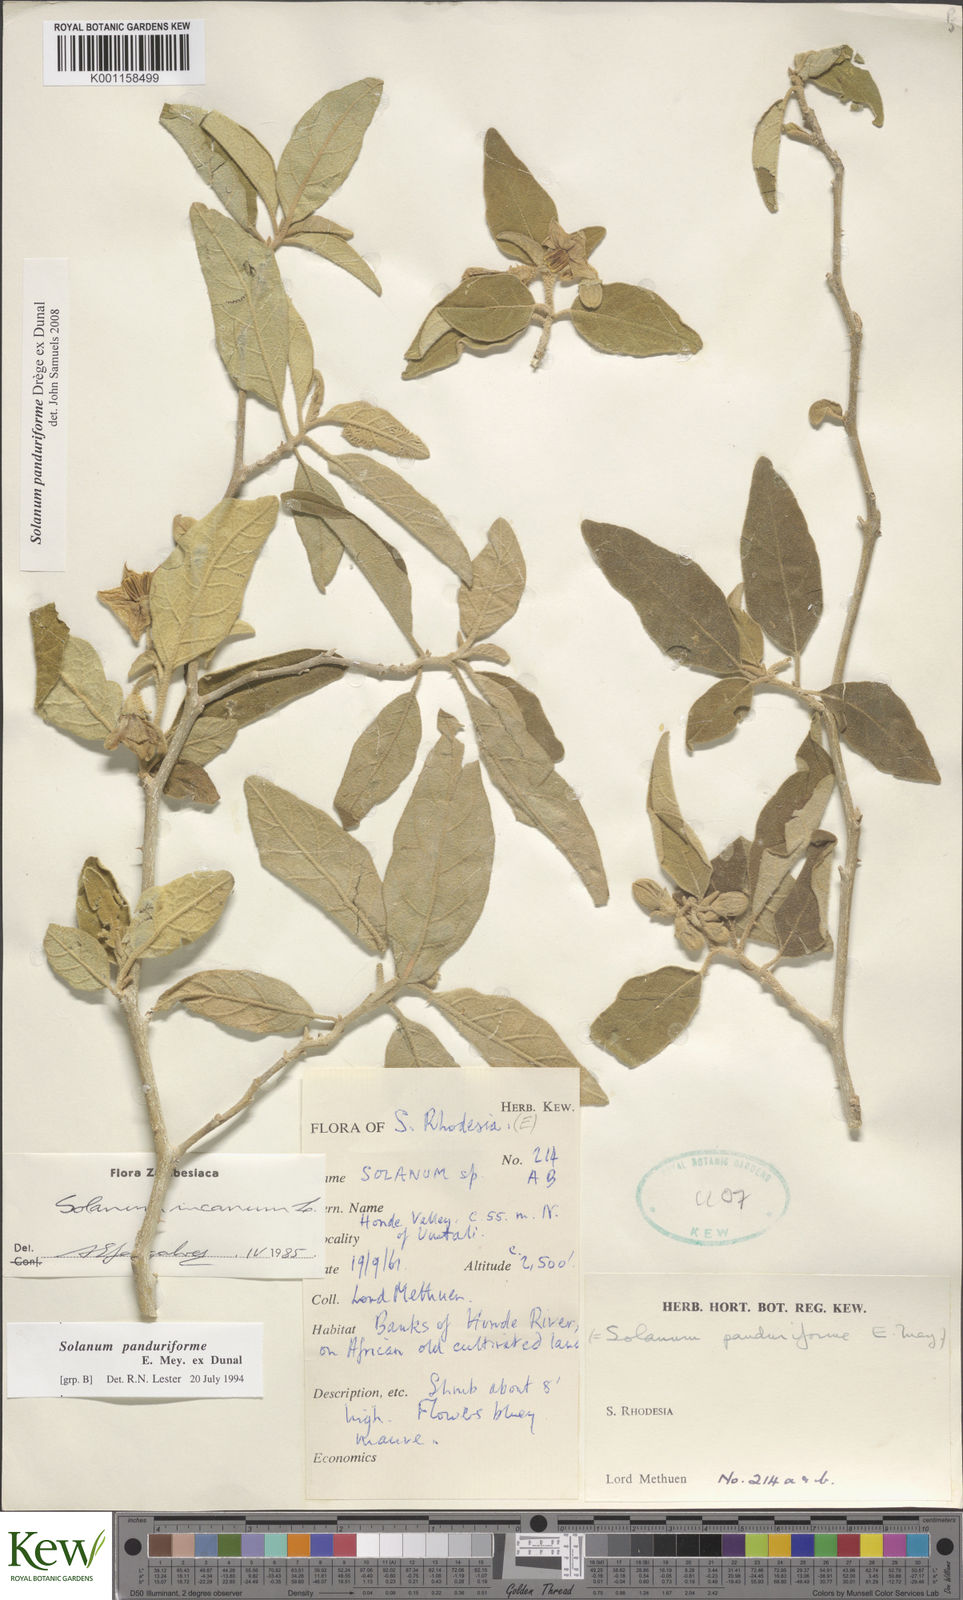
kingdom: Plantae
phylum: Tracheophyta
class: Magnoliopsida
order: Solanales
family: Solanaceae
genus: Solanum
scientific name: Solanum campylacanthum
